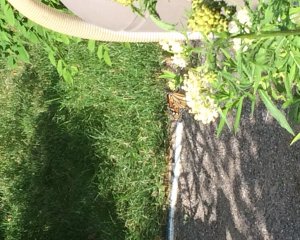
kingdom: Animalia
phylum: Arthropoda
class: Insecta
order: Lepidoptera
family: Nymphalidae
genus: Danaus
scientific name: Danaus plexippus
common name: Monarch
